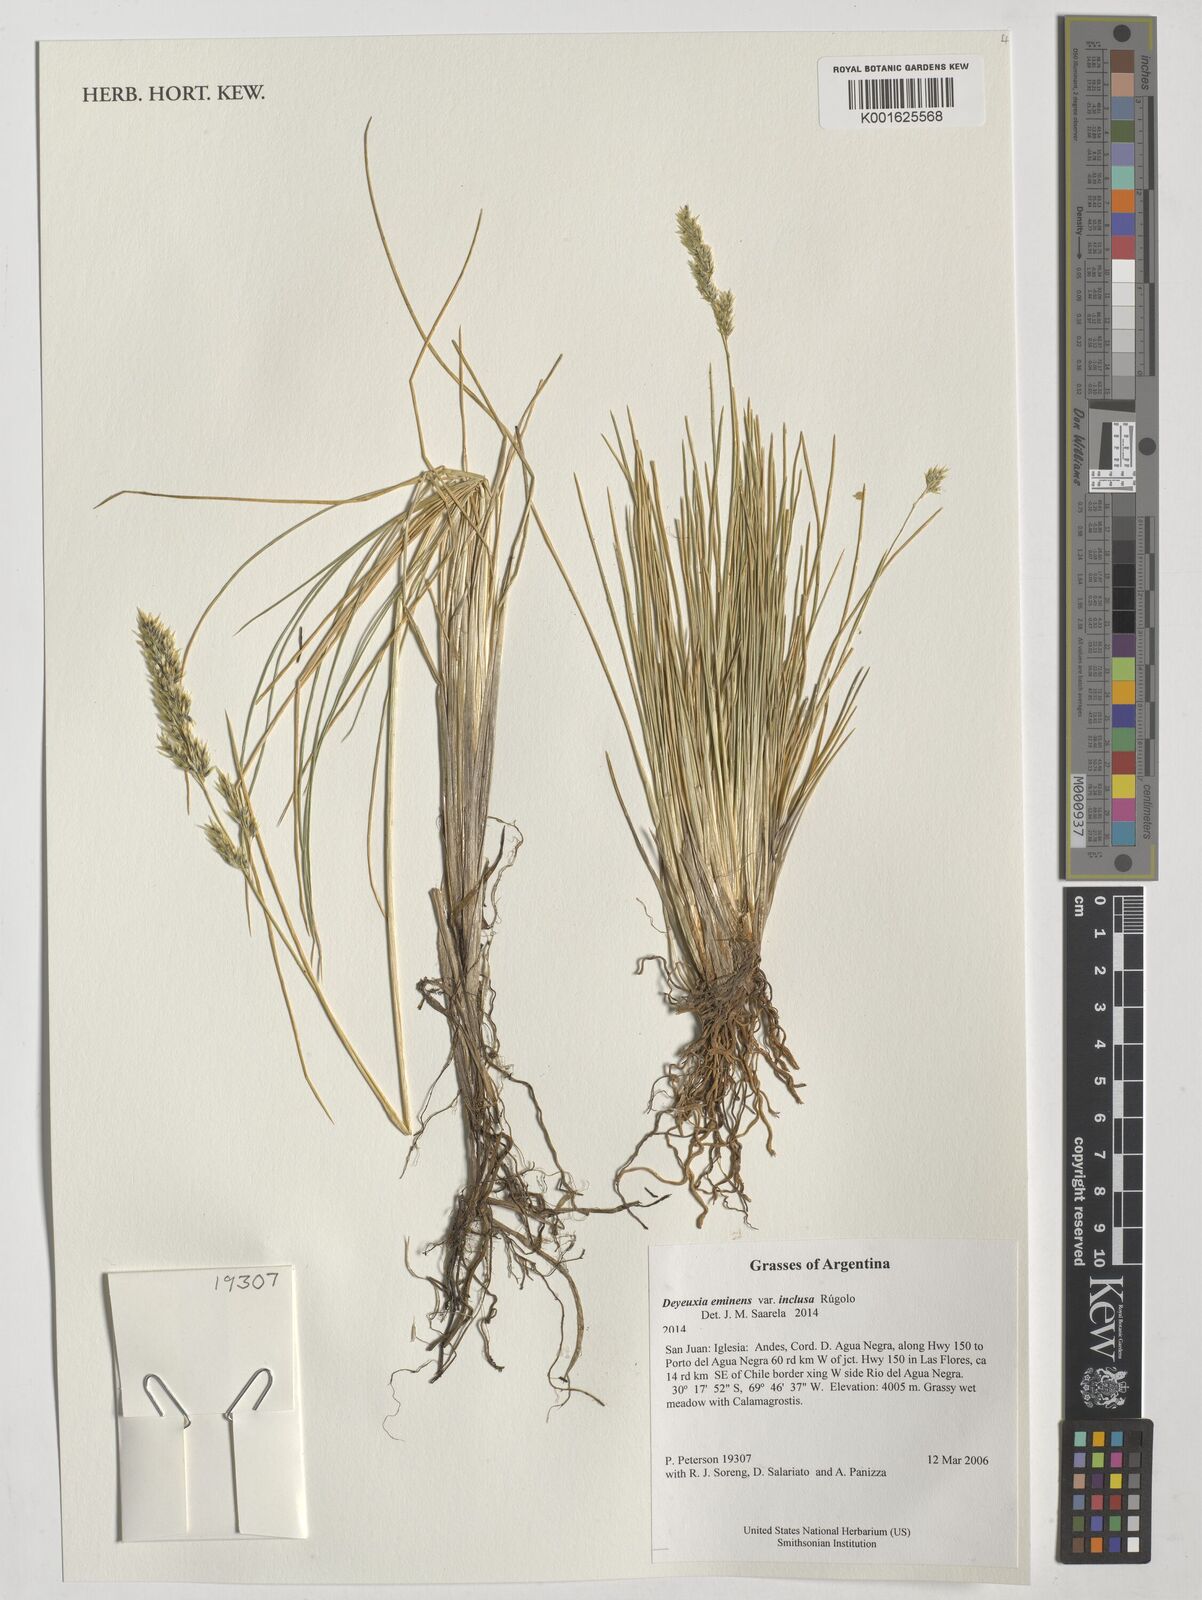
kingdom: Plantae
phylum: Tracheophyta
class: Liliopsida
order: Poales
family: Poaceae
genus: Deschampsia
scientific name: Deschampsia eminens
